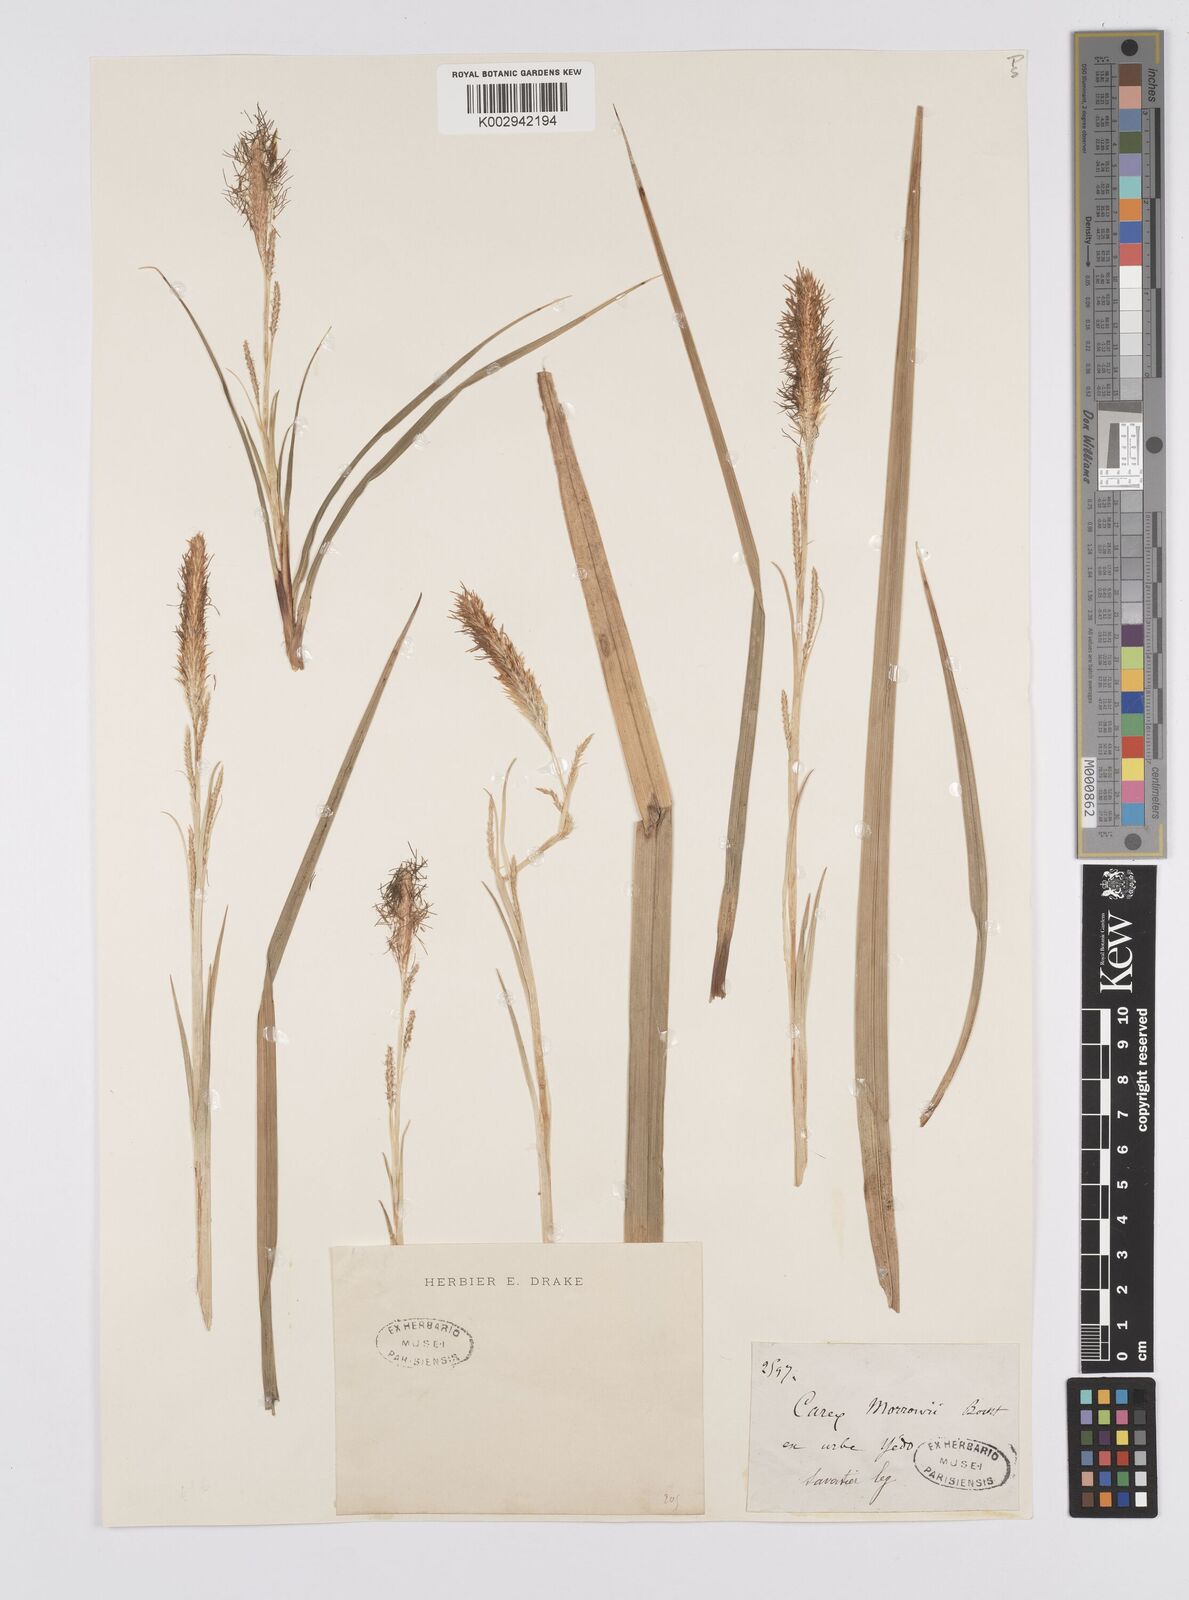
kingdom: Plantae
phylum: Tracheophyta
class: Liliopsida
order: Poales
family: Cyperaceae
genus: Carex
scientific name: Carex morrowii
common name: Japanese sedge
